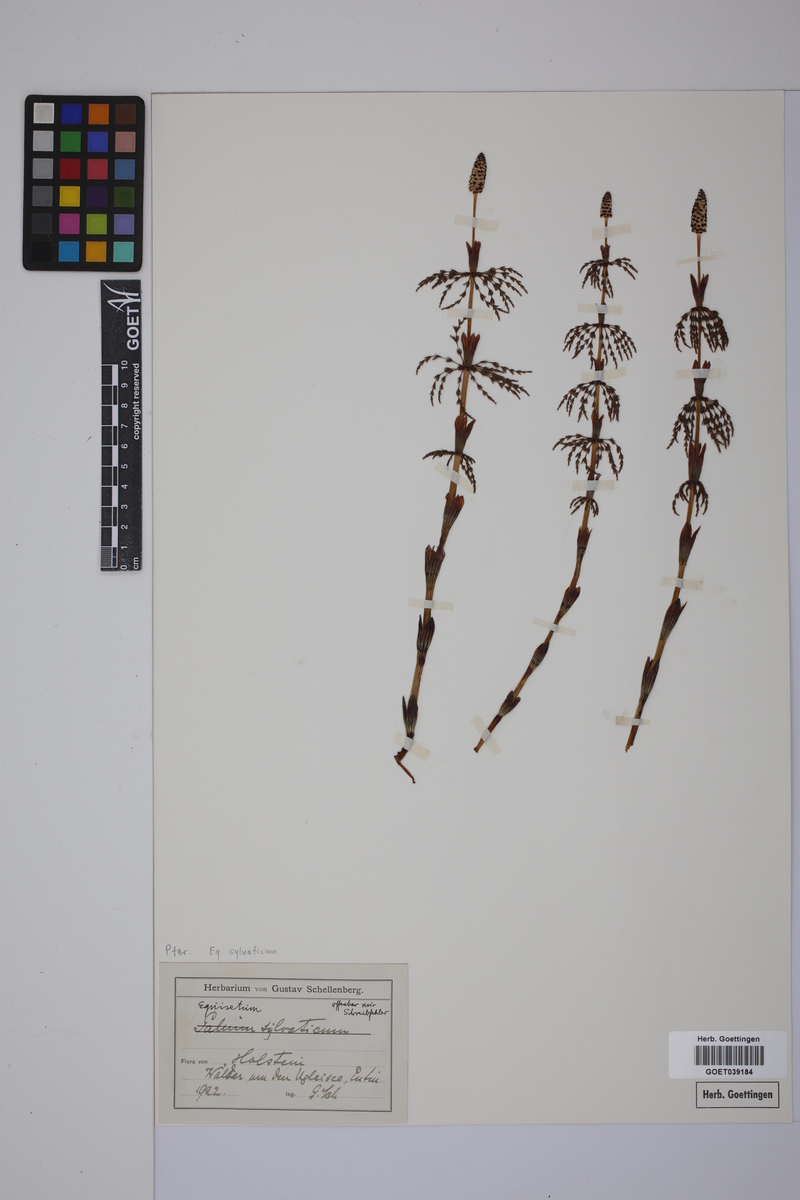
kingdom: Plantae
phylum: Tracheophyta
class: Polypodiopsida
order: Equisetales
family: Equisetaceae
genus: Equisetum
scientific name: Equisetum sylvaticum
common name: Wood horsetail
